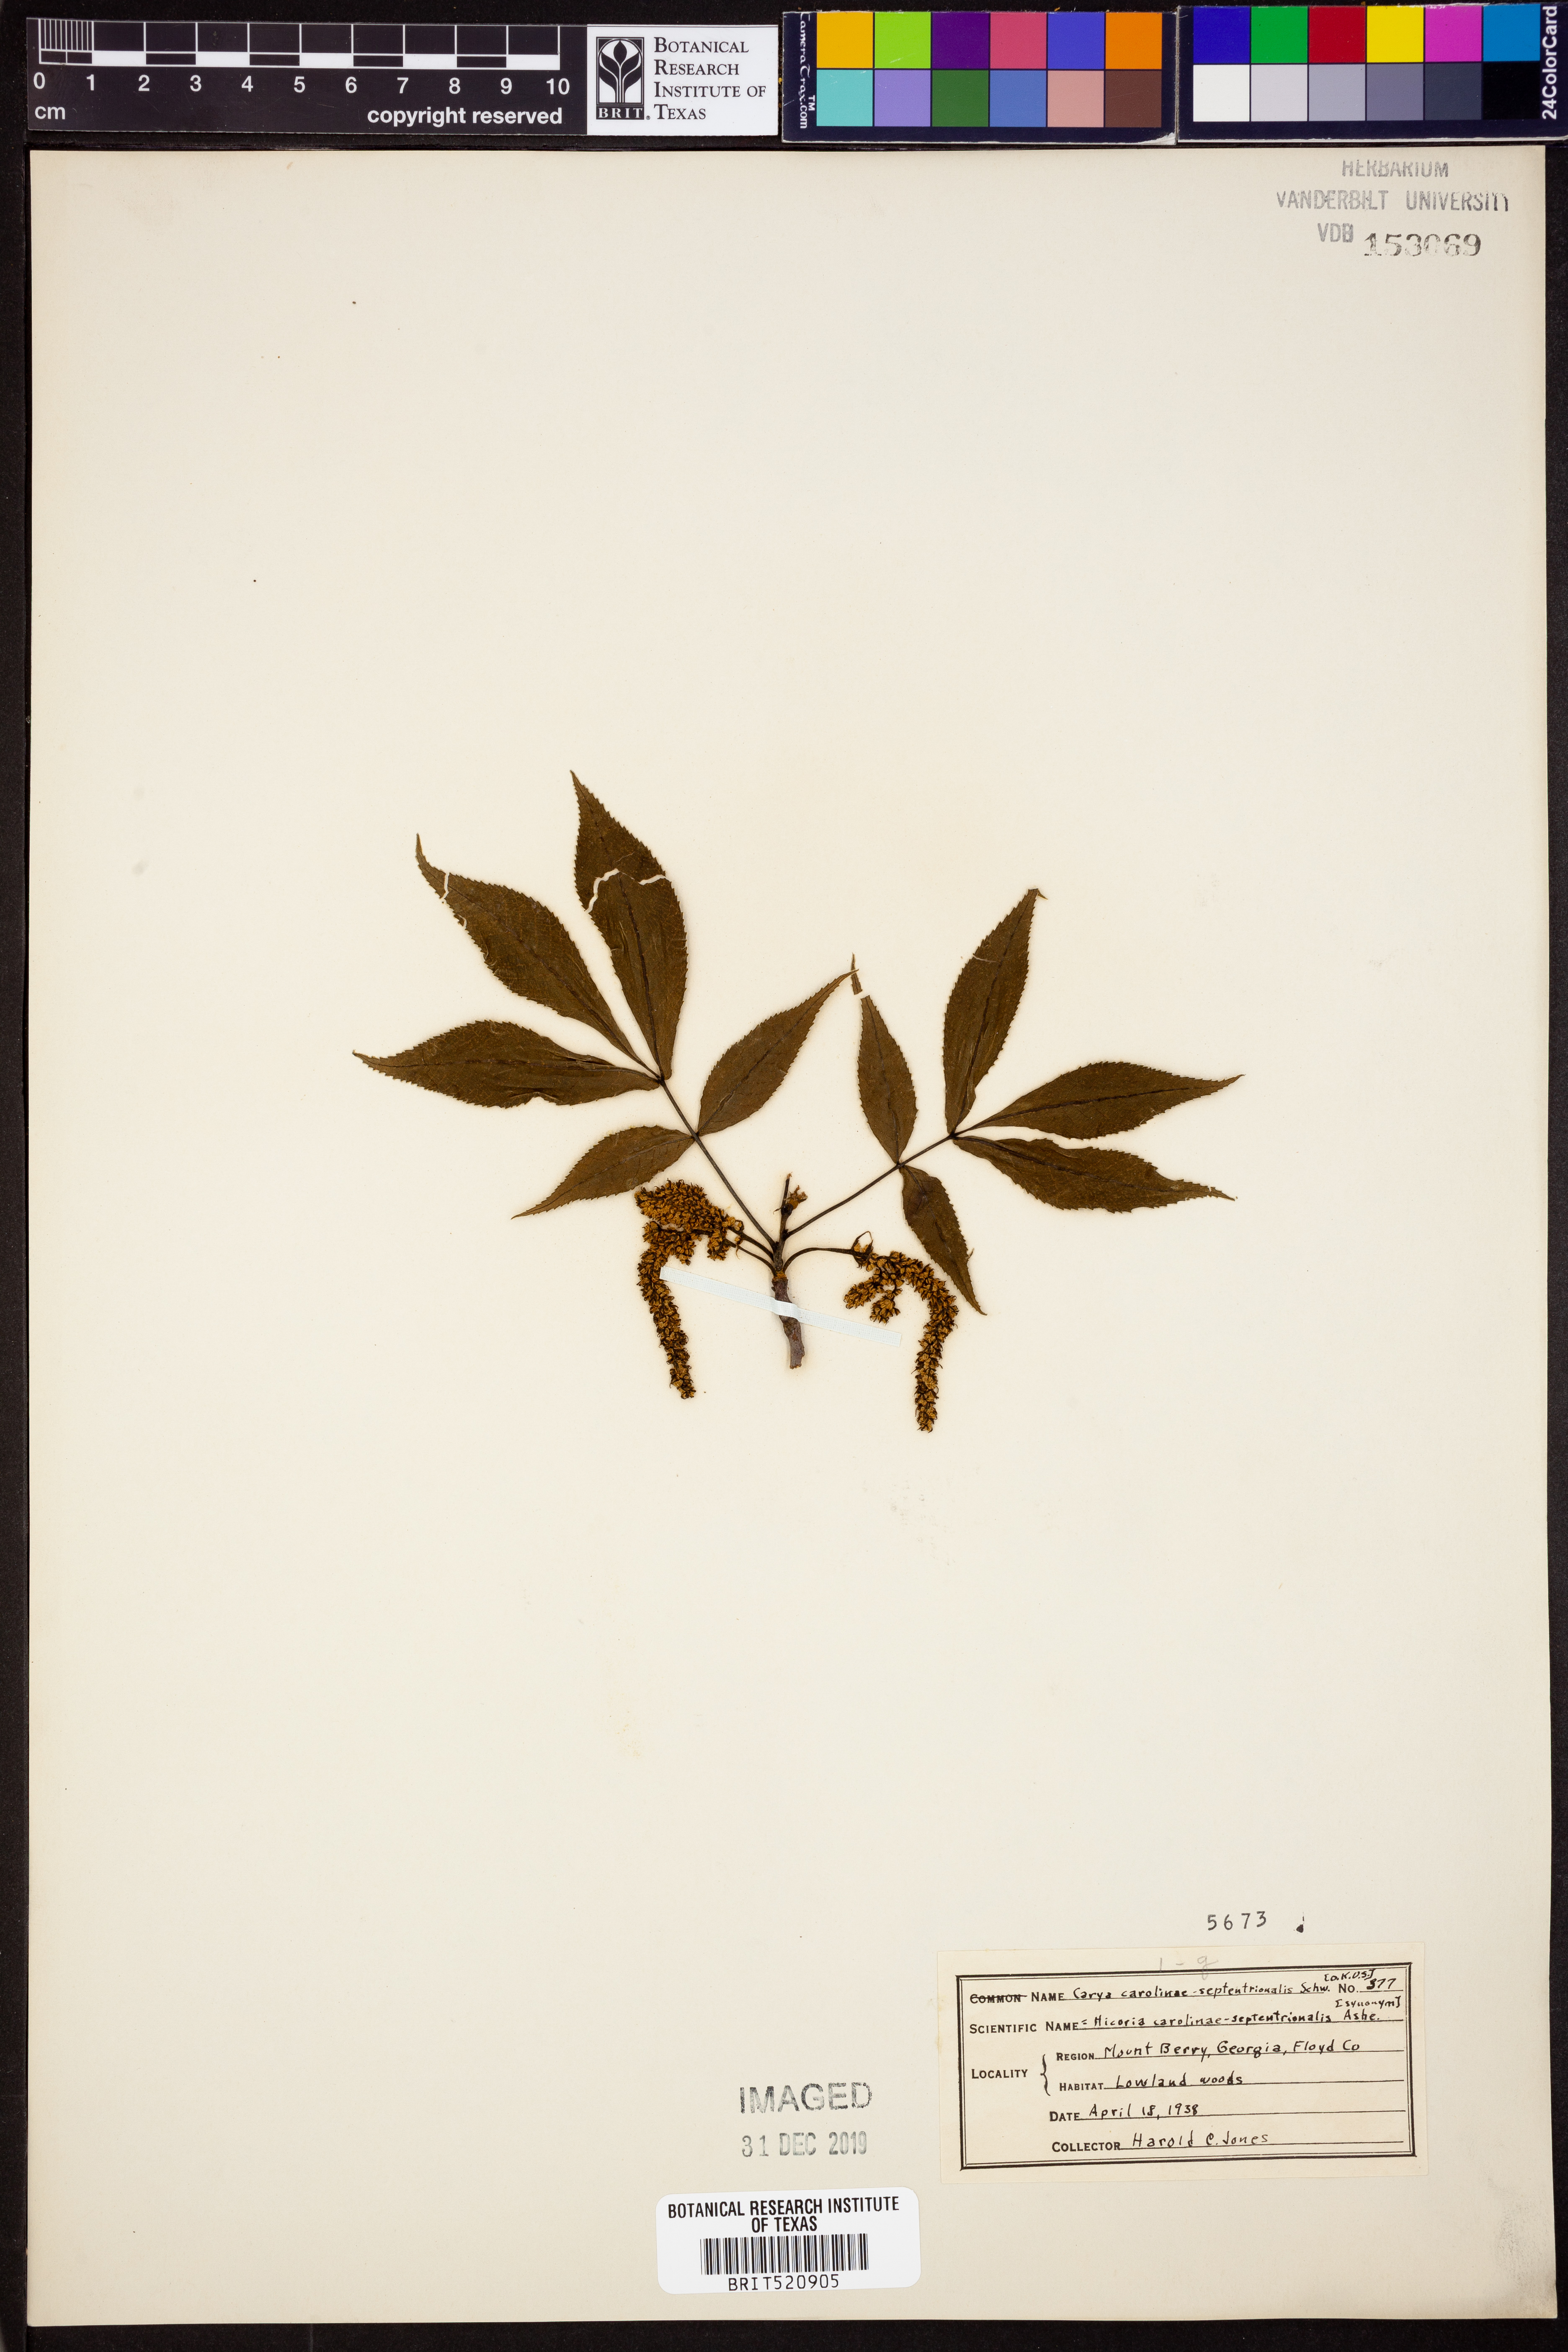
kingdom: Plantae
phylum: Tracheophyta
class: Magnoliopsida
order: Fagales
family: Juglandaceae
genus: Carya
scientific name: Carya carolinae-septentrionalis
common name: Carolina hickory
